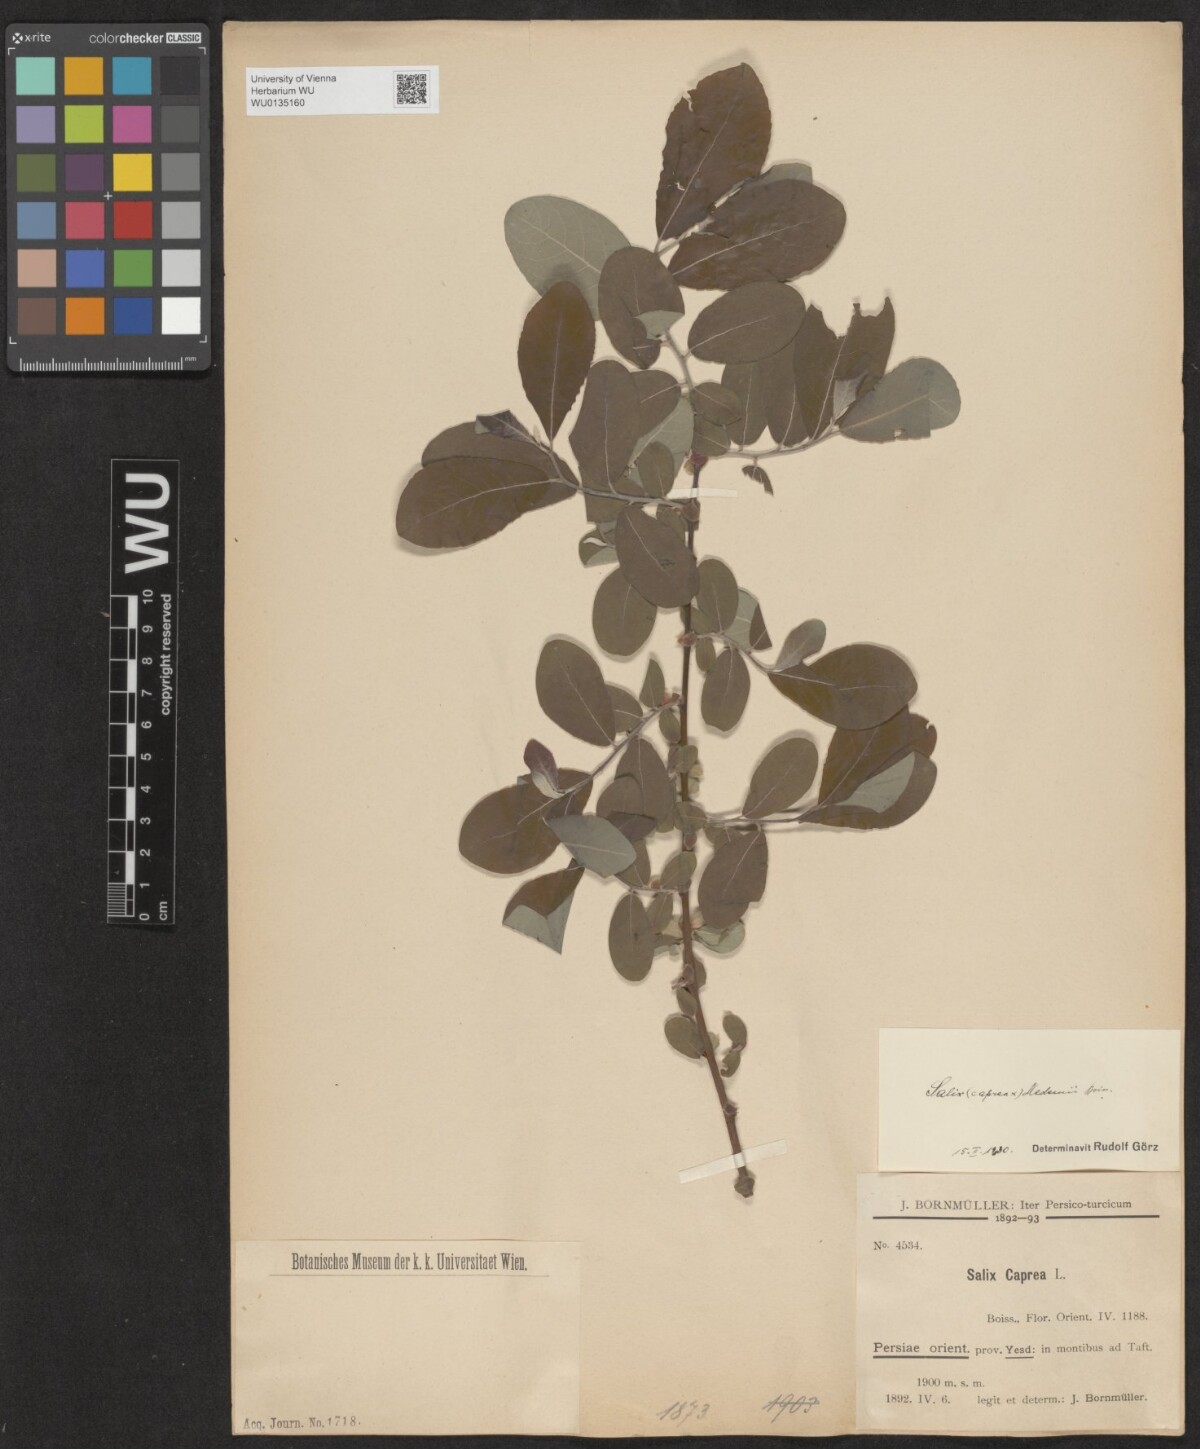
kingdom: Plantae
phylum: Tracheophyta
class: Magnoliopsida
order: Malpighiales
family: Salicaceae
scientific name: Salicaceae
